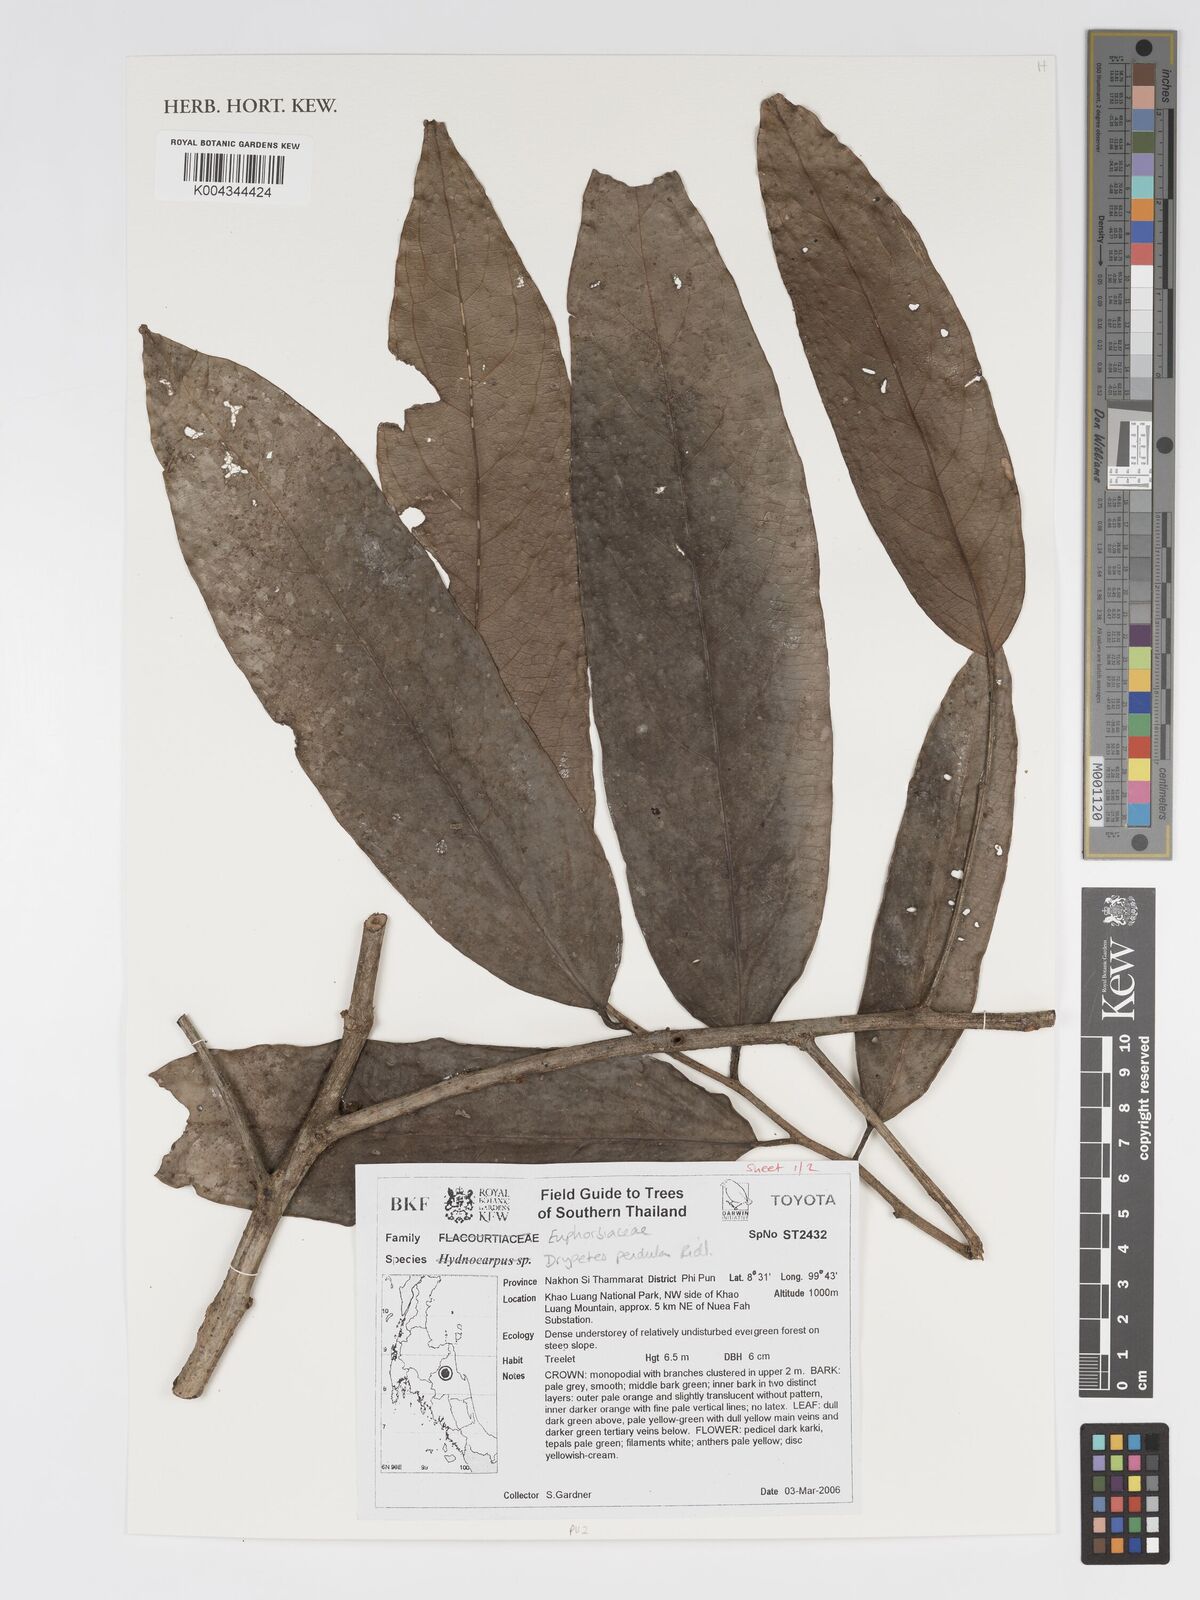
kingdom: Plantae
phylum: Tracheophyta
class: Magnoliopsida
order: Malpighiales
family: Putranjivaceae
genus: Drypetes
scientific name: Drypetes pendula
